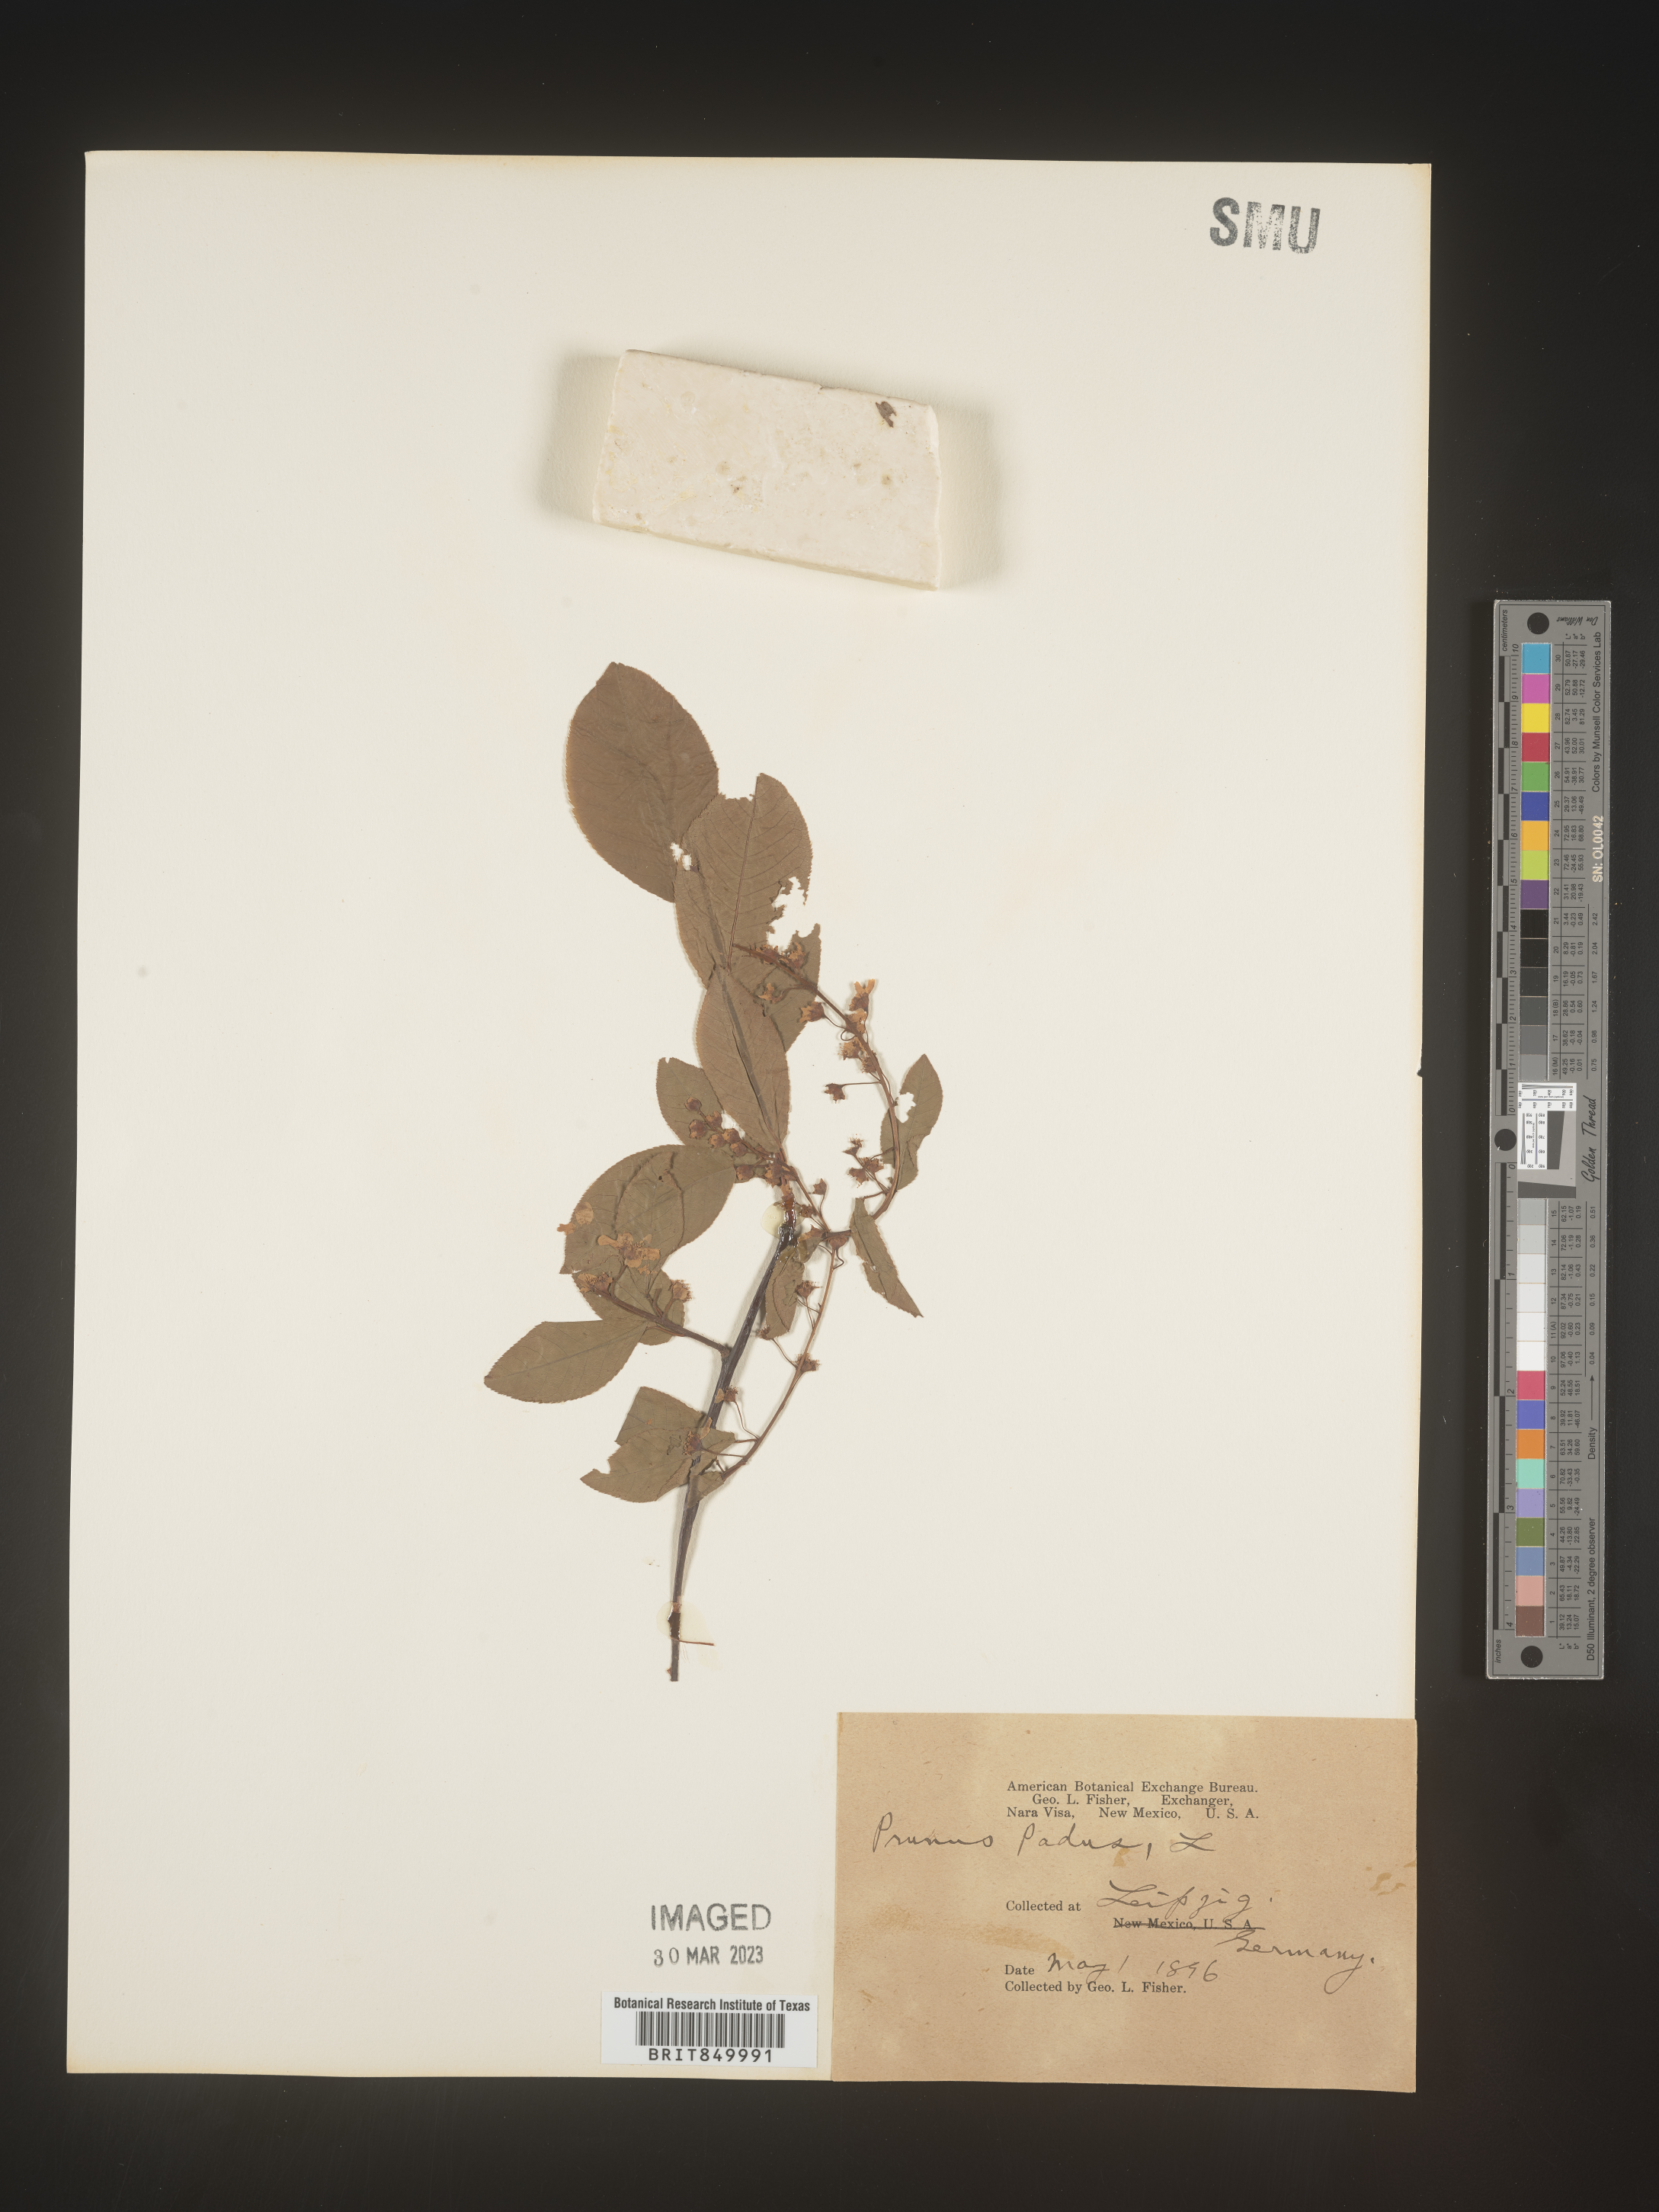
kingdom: Plantae
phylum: Tracheophyta
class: Magnoliopsida
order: Rosales
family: Rosaceae
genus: Prunus
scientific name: Prunus
